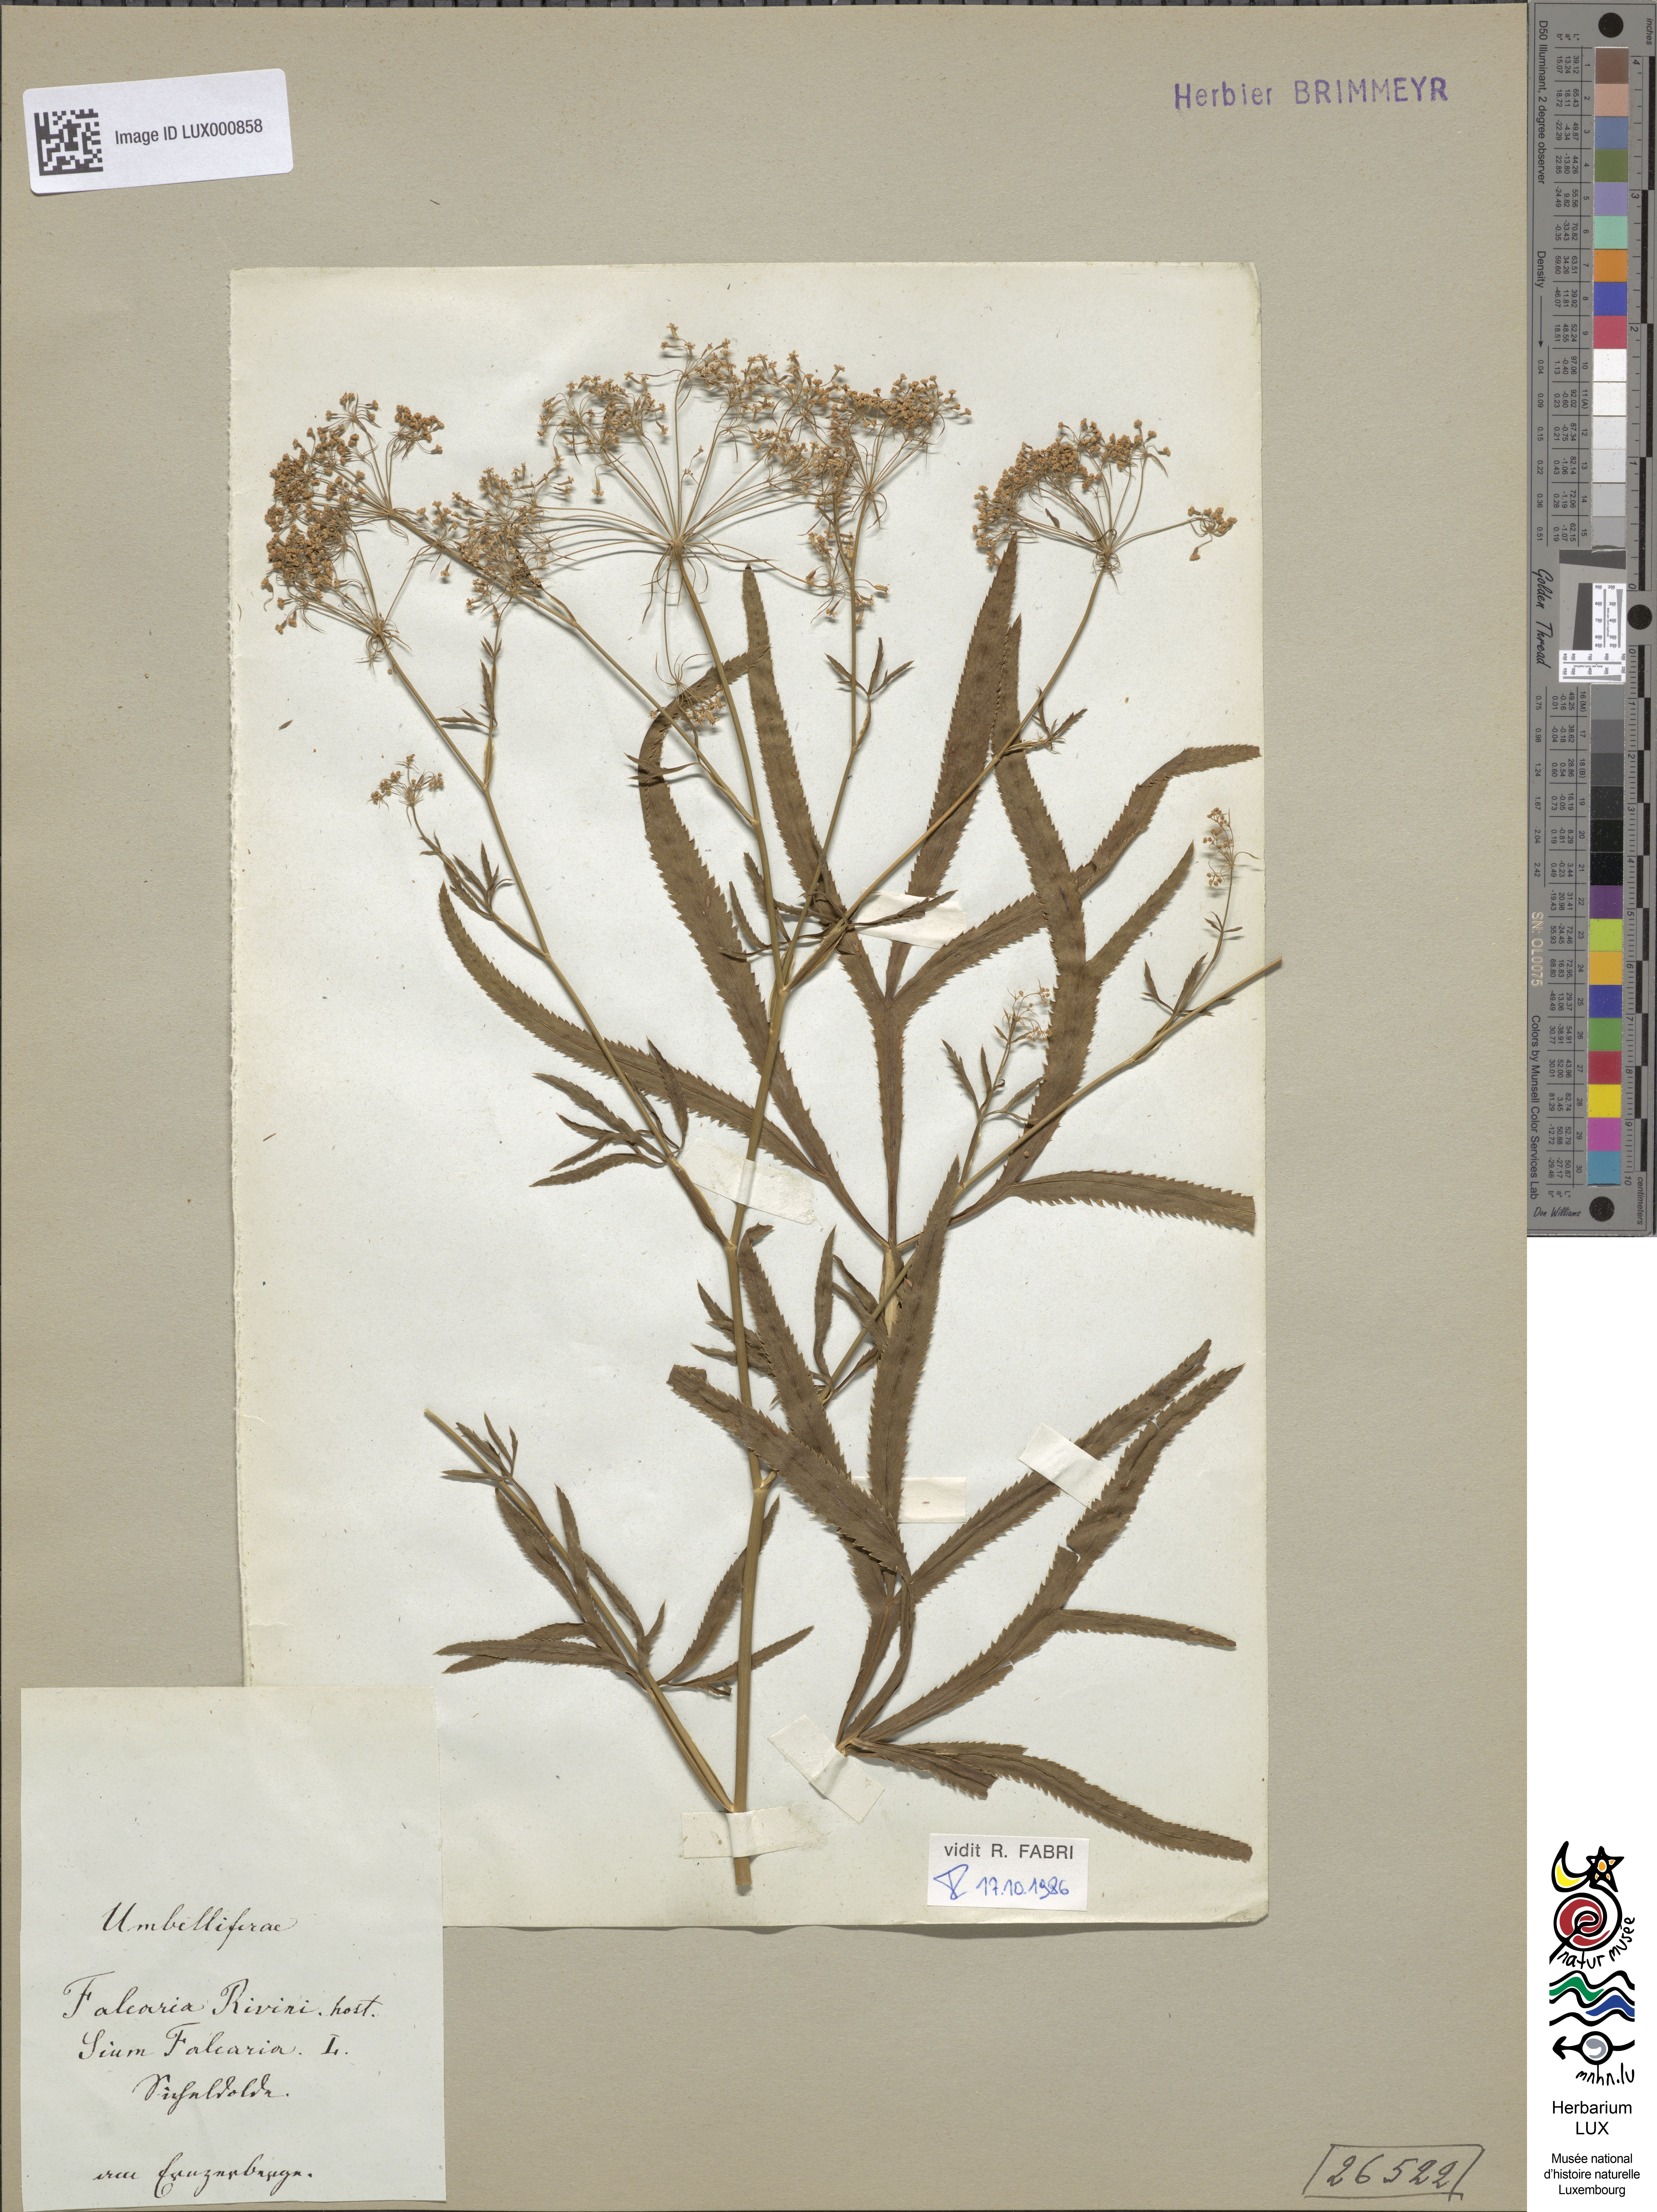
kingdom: Plantae
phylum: Tracheophyta
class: Magnoliopsida
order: Apiales
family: Apiaceae
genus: Falcaria
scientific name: Falcaria vulgaris
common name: Longleaf
